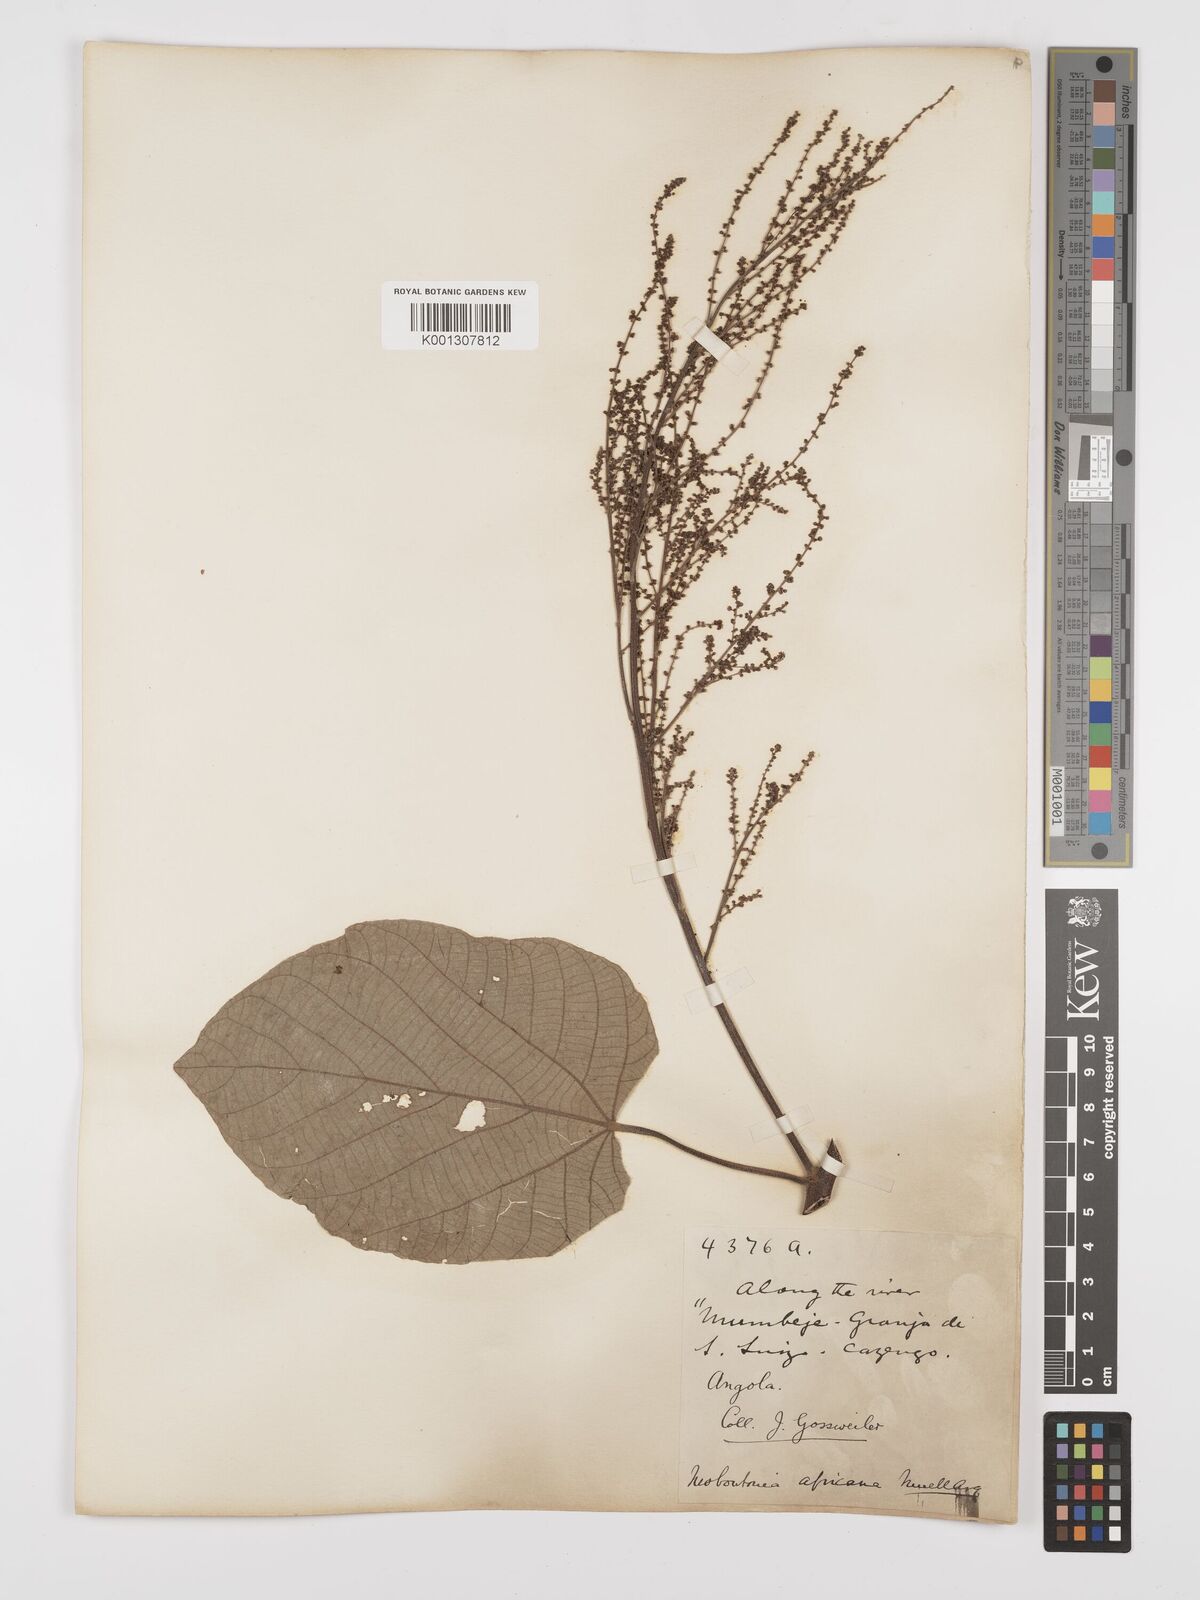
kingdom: Plantae
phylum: Tracheophyta
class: Magnoliopsida
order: Malpighiales
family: Euphorbiaceae
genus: Neoboutonia
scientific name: Neoboutonia
